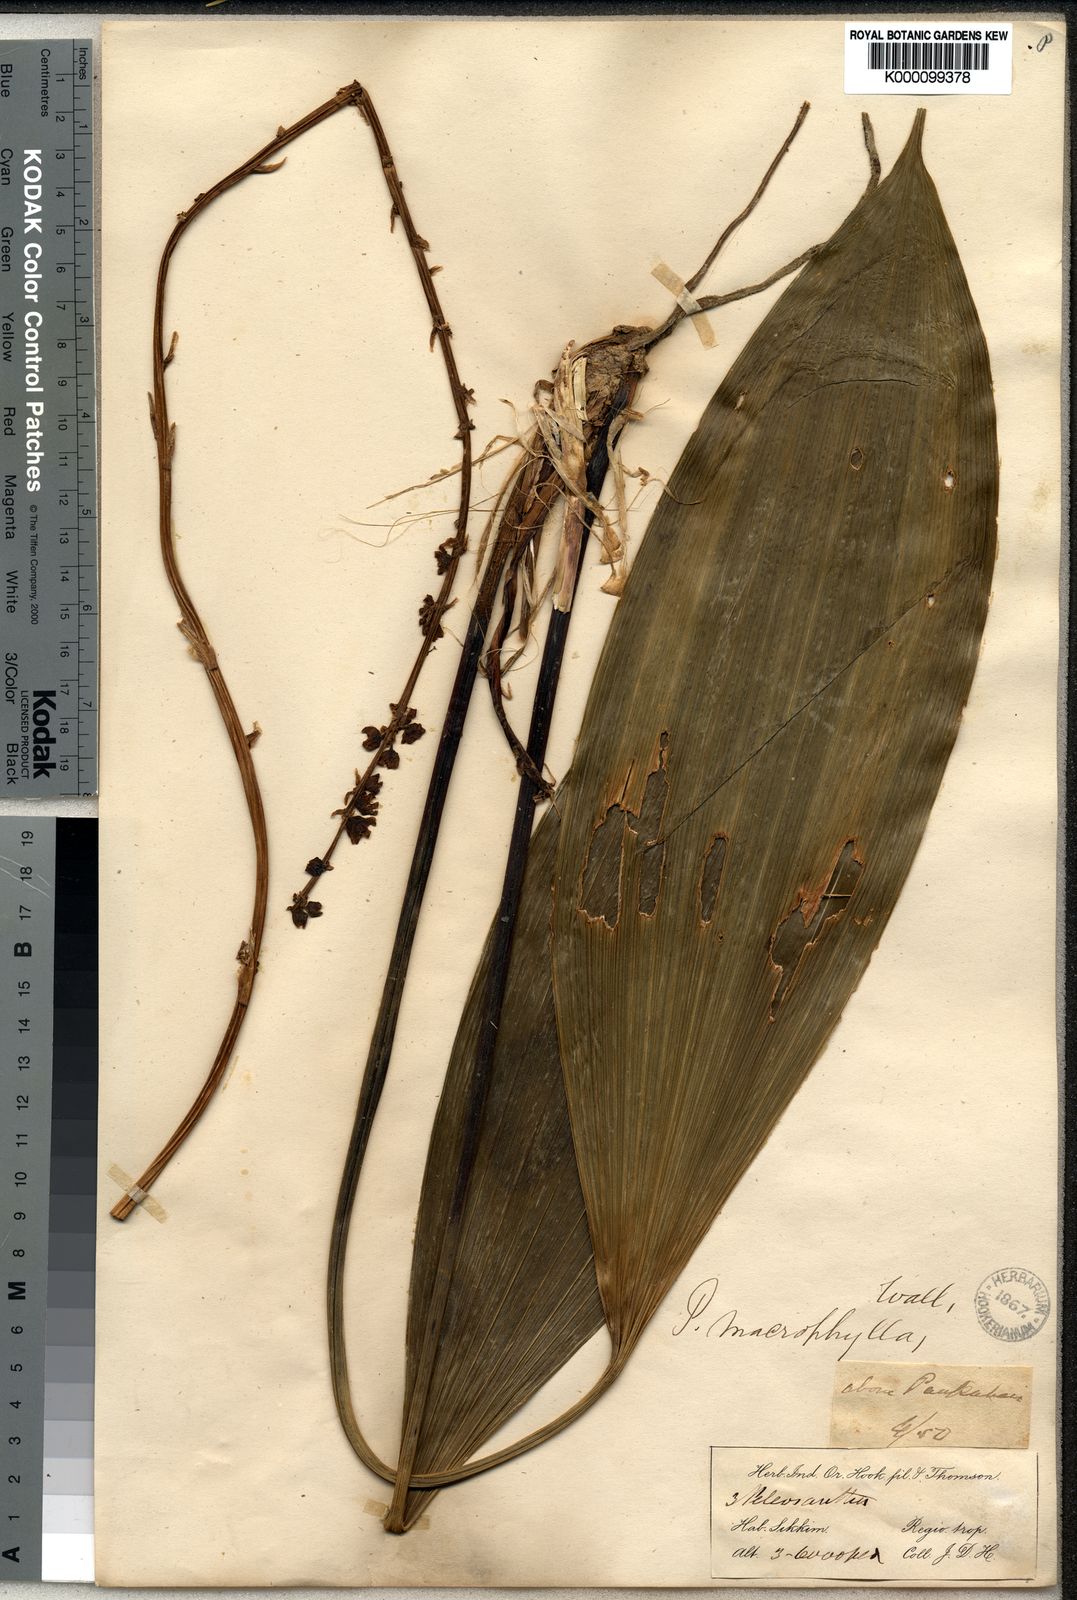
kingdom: Plantae
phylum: Tracheophyta
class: Liliopsida
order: Asparagales
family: Asparagaceae
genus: Peliosanthes
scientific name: Peliosanthes
